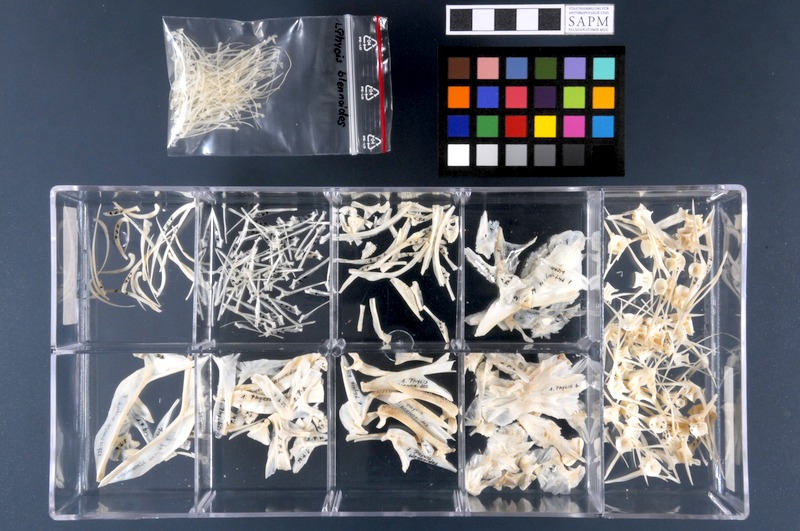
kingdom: Animalia
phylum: Chordata
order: Gadiformes
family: Phycidae
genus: Phycis
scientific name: Phycis blennoides
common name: Forked hake
